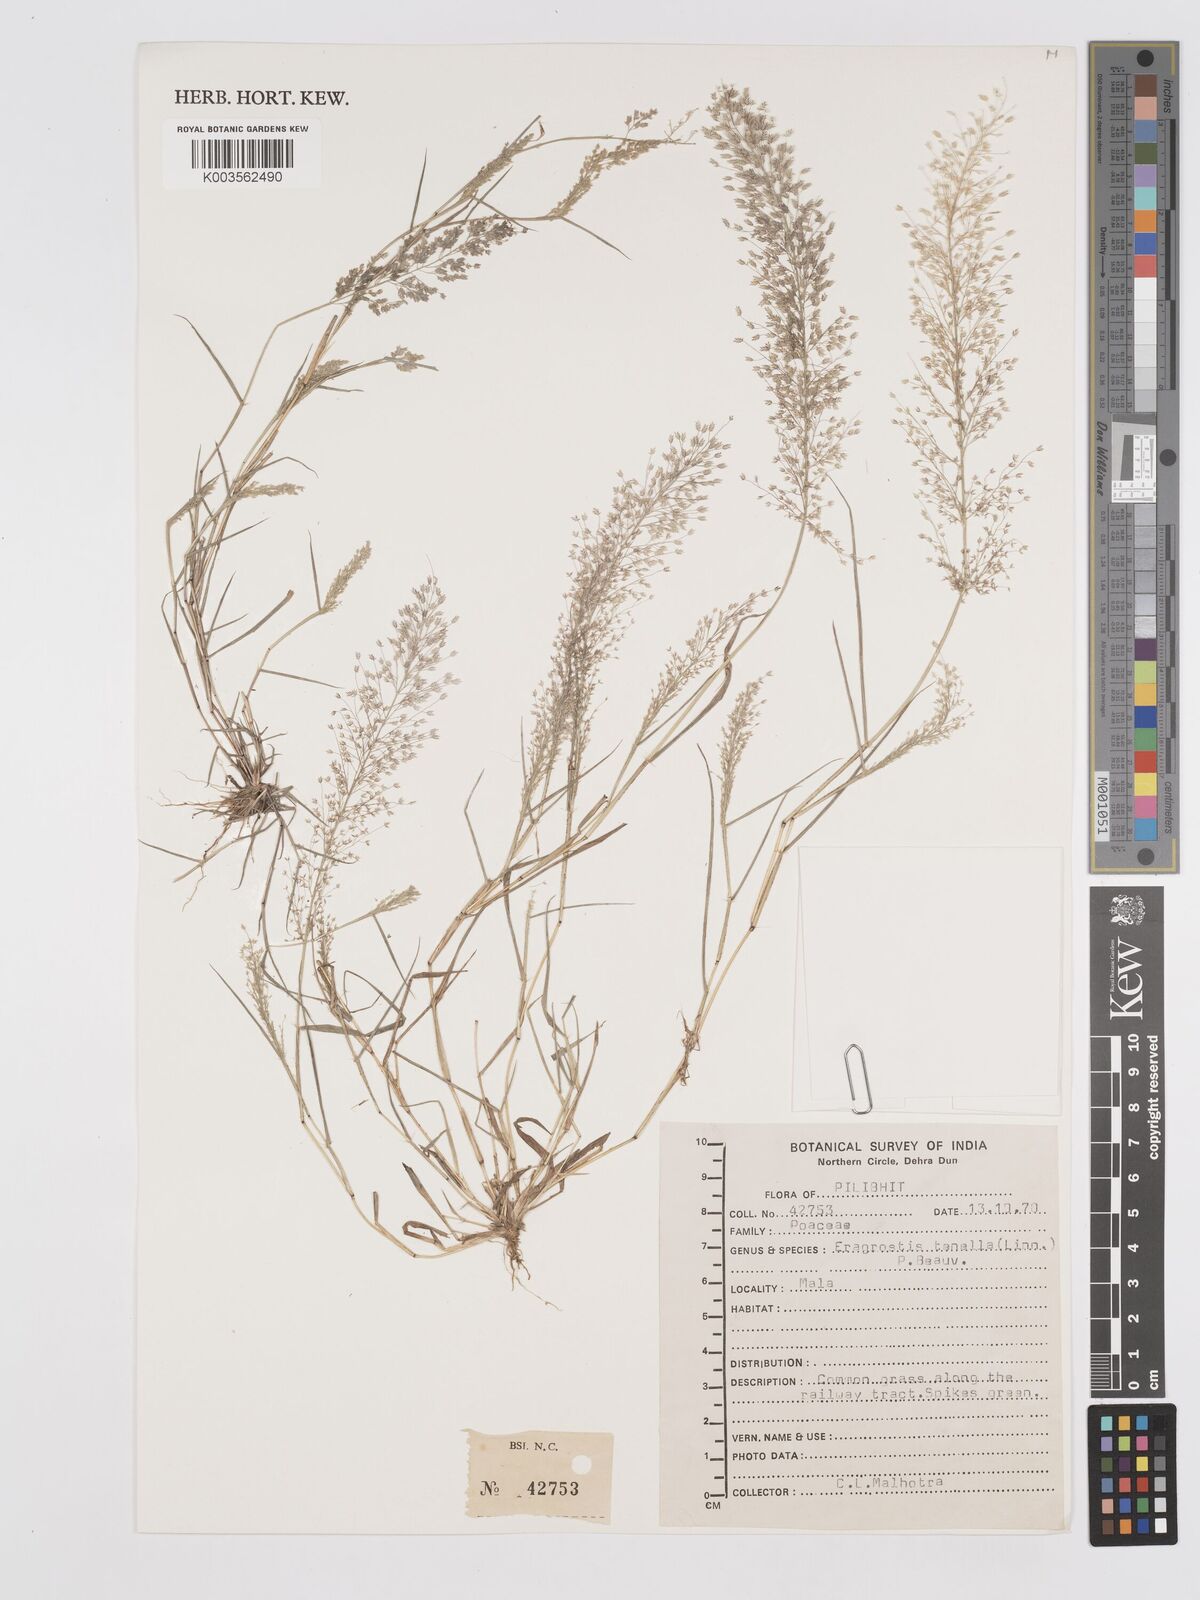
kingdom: Plantae
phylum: Tracheophyta
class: Liliopsida
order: Poales
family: Poaceae
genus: Eragrostis
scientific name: Eragrostis tenella
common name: Japanese lovegrass
